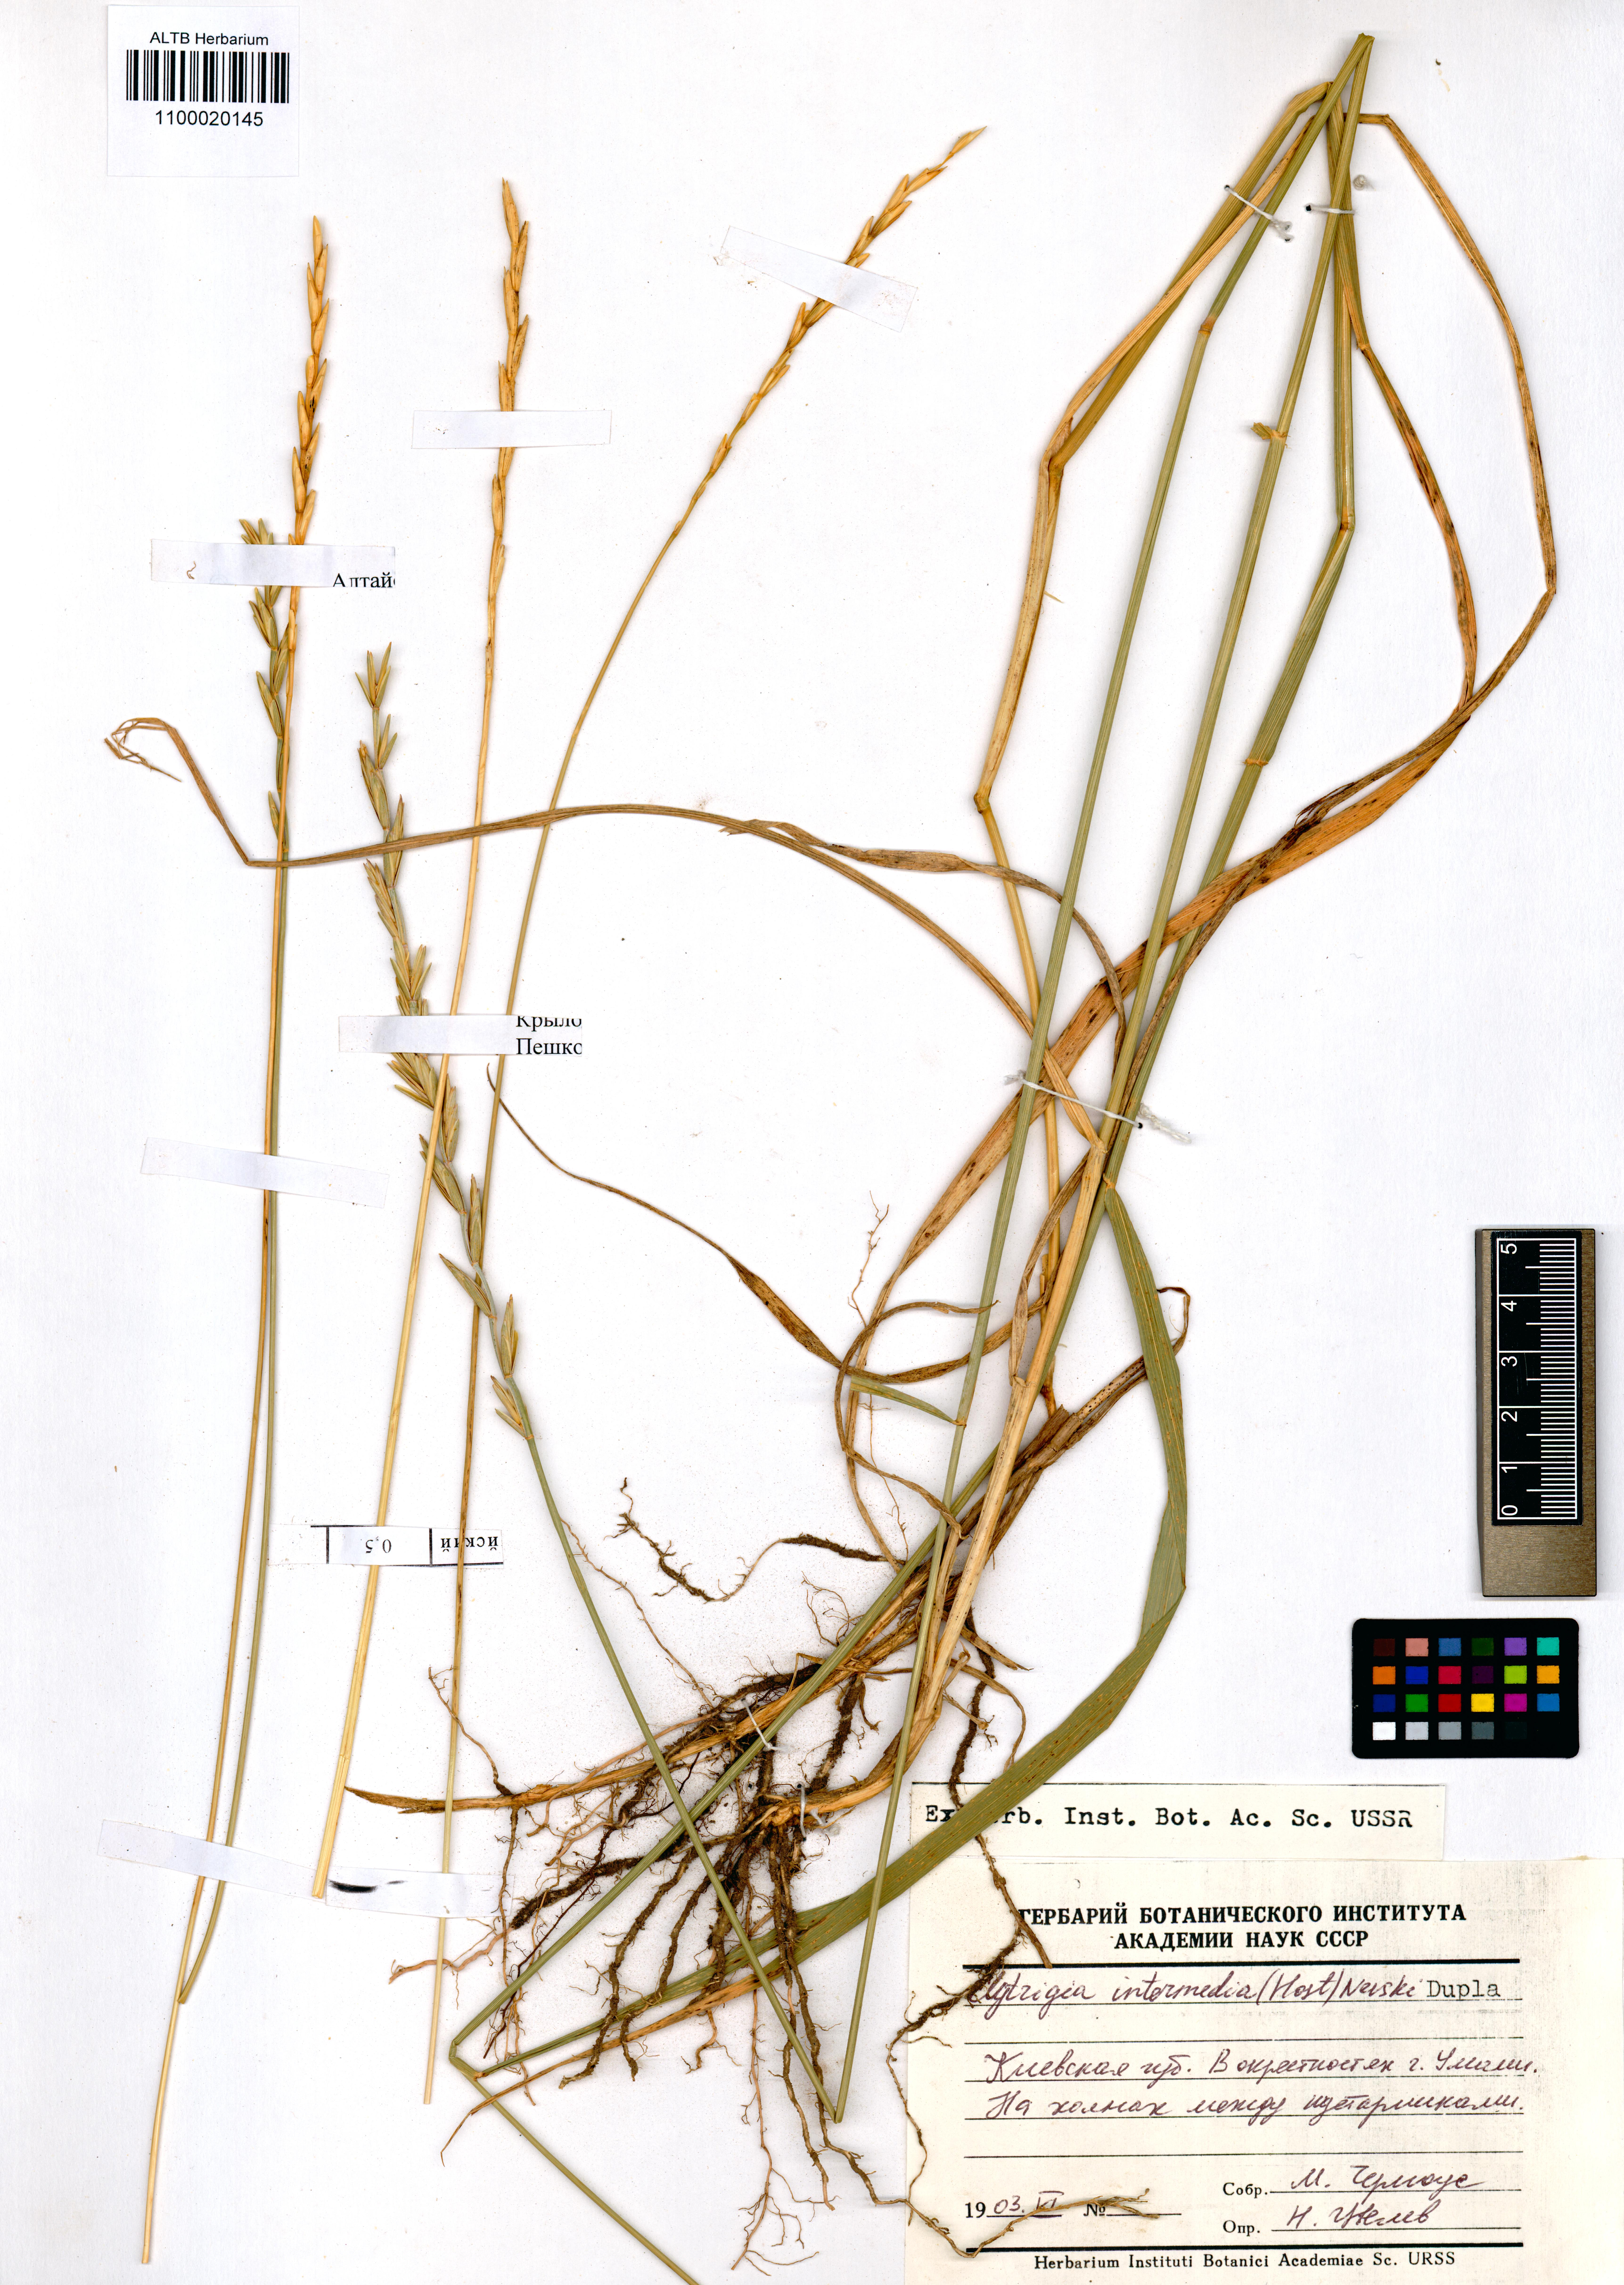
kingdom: Plantae
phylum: Tracheophyta
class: Liliopsida
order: Poales
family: Poaceae
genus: Thinopyrum
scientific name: Thinopyrum intermedium
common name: Intermediate wheatgrass
